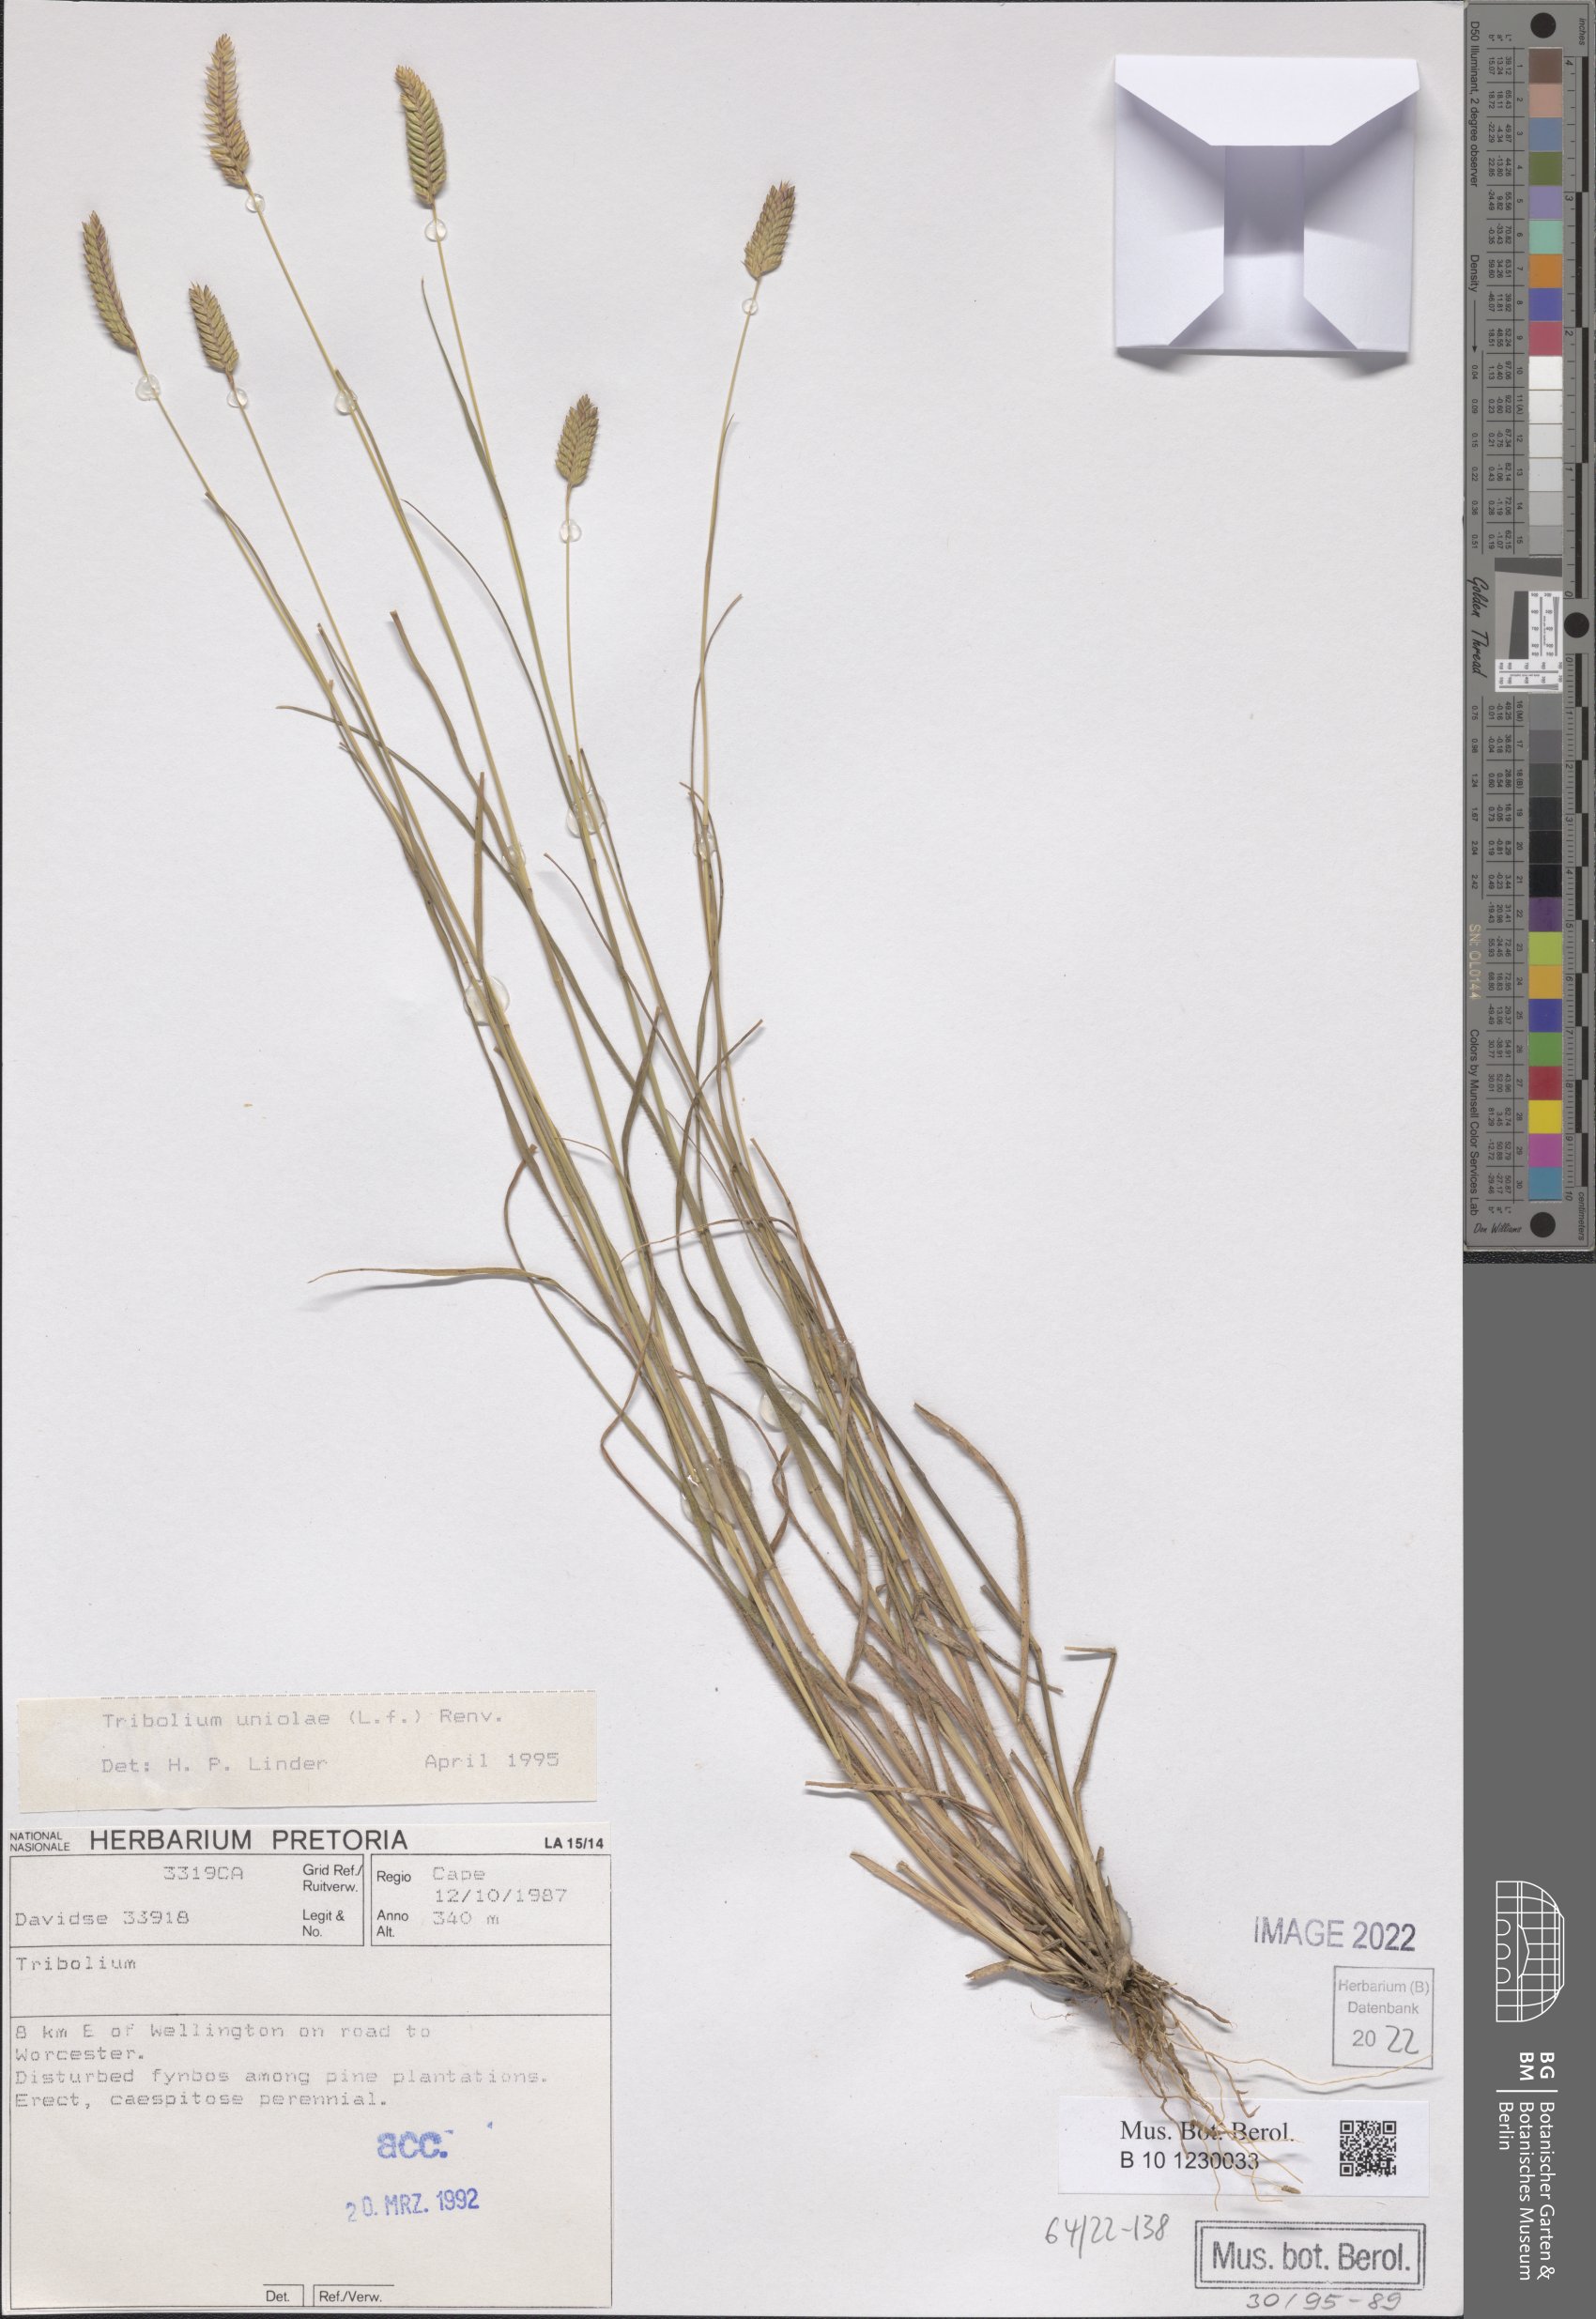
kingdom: Plantae
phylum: Tracheophyta
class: Liliopsida
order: Poales
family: Poaceae
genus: Tribolium
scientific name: Tribolium uniolae
